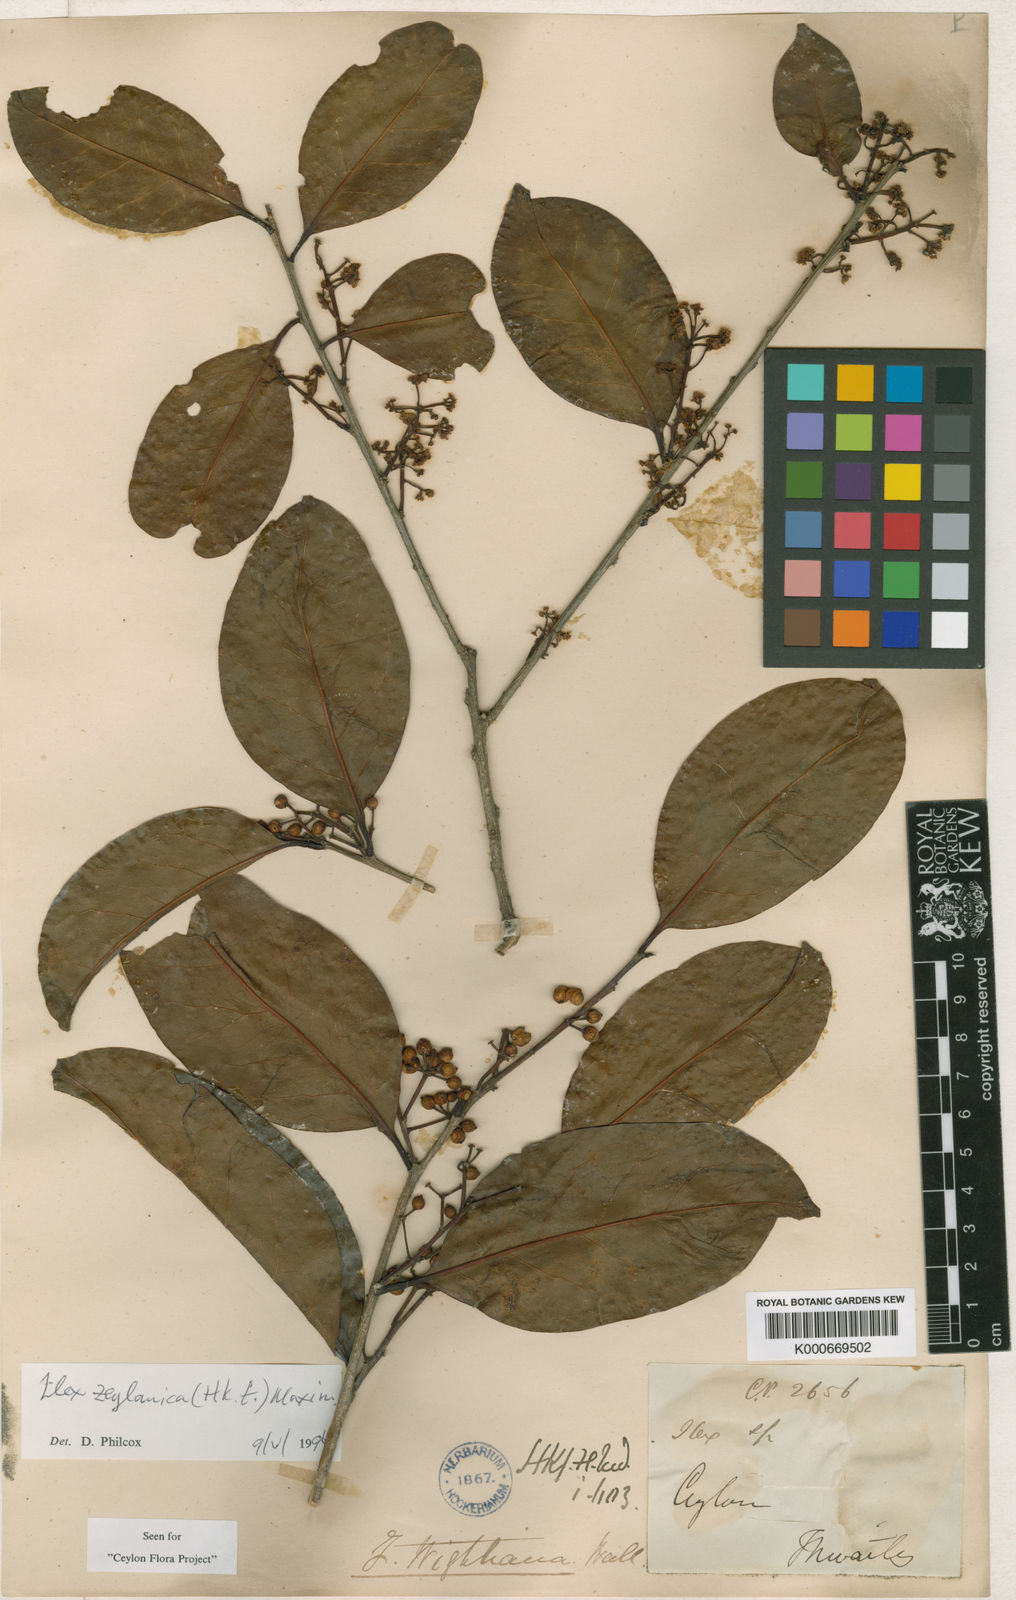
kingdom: Plantae
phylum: Tracheophyta
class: Magnoliopsida
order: Aquifoliales
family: Aquifoliaceae
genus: Ilex
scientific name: Ilex zeylanica
